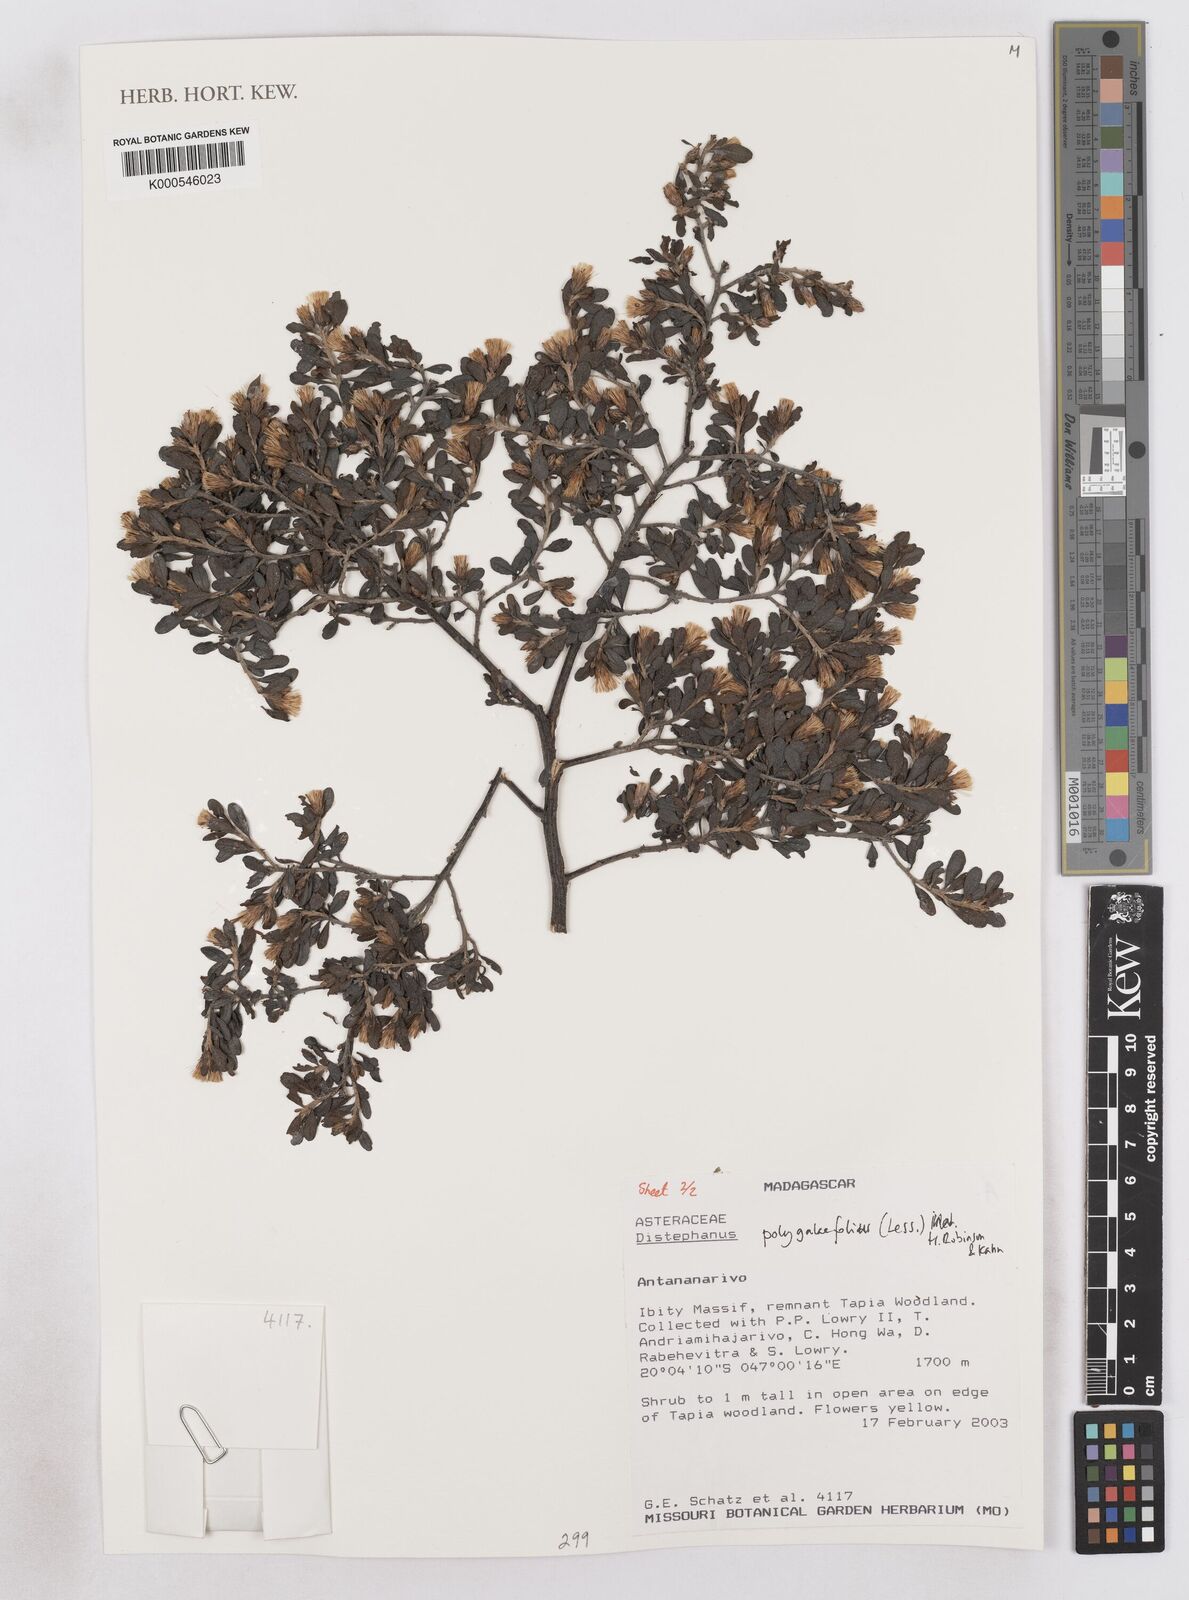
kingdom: Plantae
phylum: Tracheophyta
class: Magnoliopsida
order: Asterales
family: Asteraceae
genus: Distephanus
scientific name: Distephanus polygalifolius
